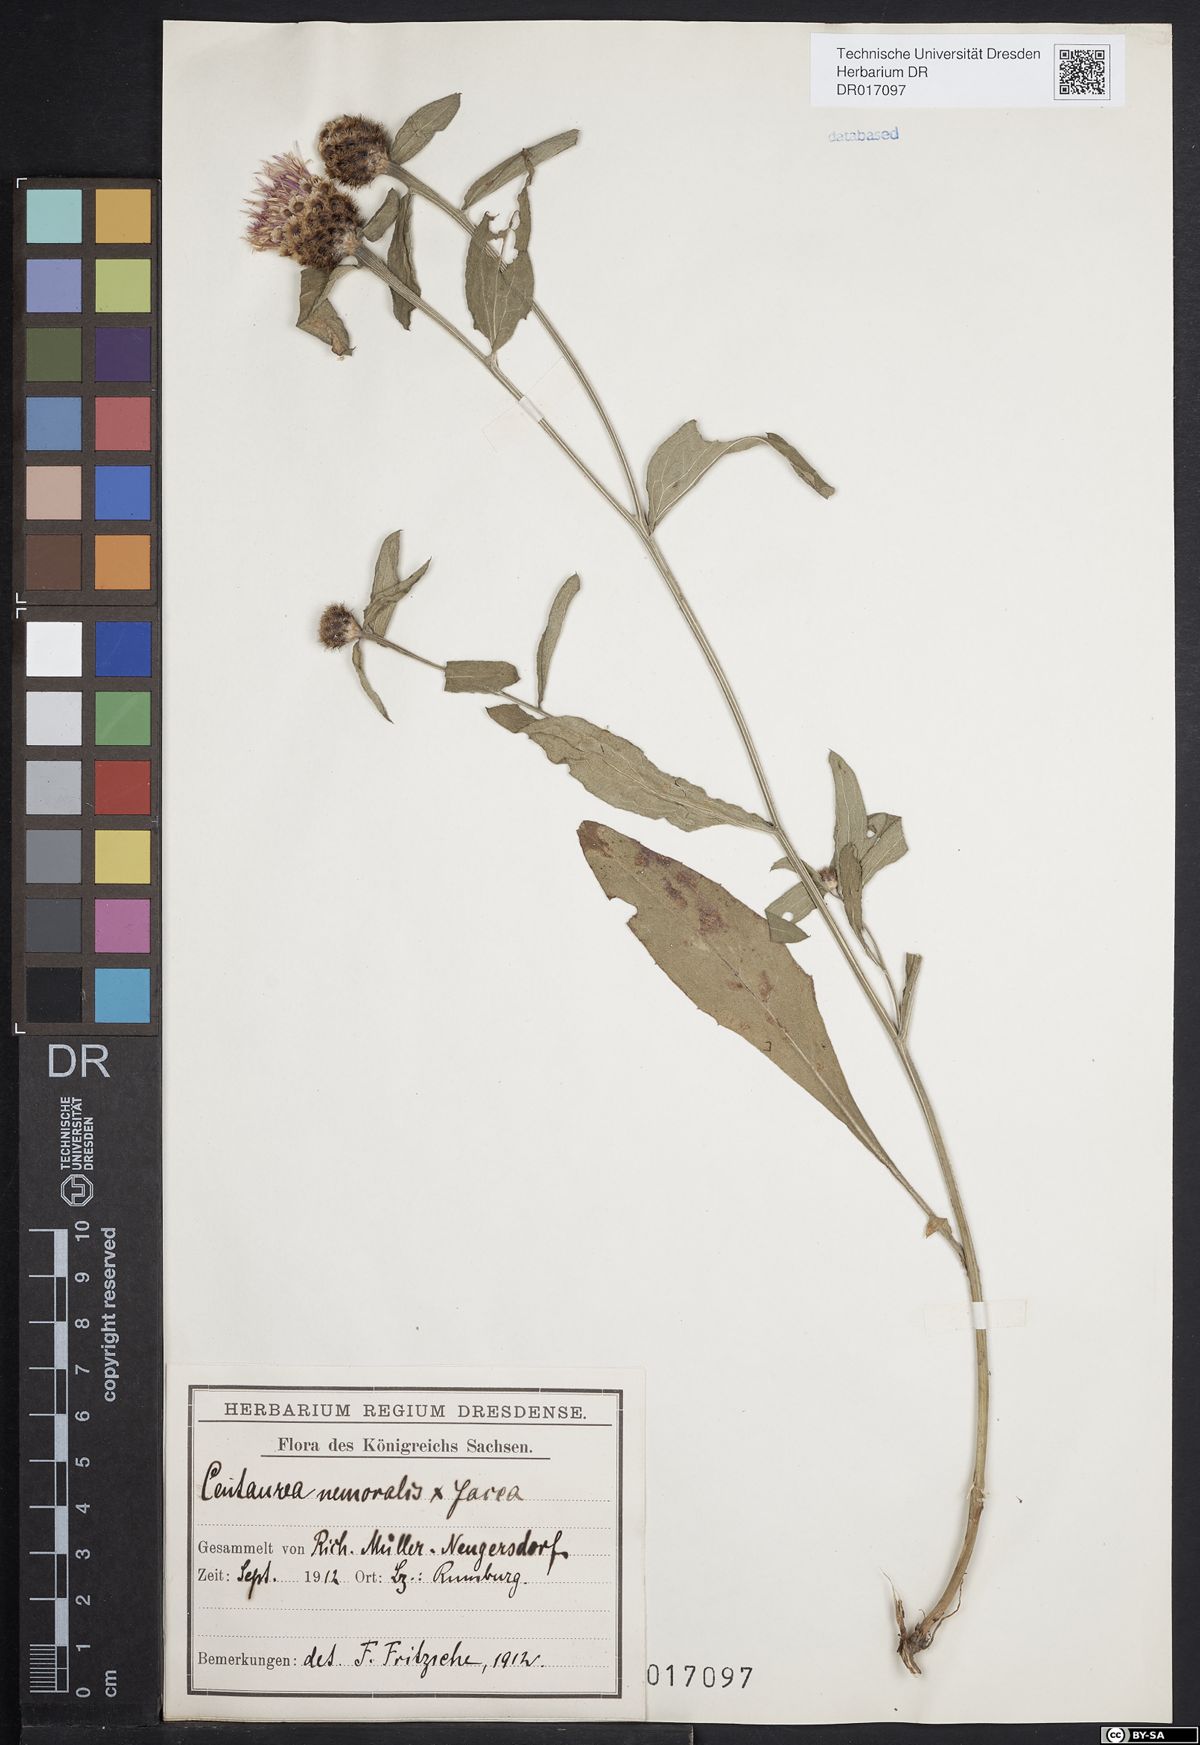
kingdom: Plantae
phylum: Tracheophyta
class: Magnoliopsida
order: Asterales
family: Asteraceae
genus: Centaurea
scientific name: Centaurea gerstlaueri
